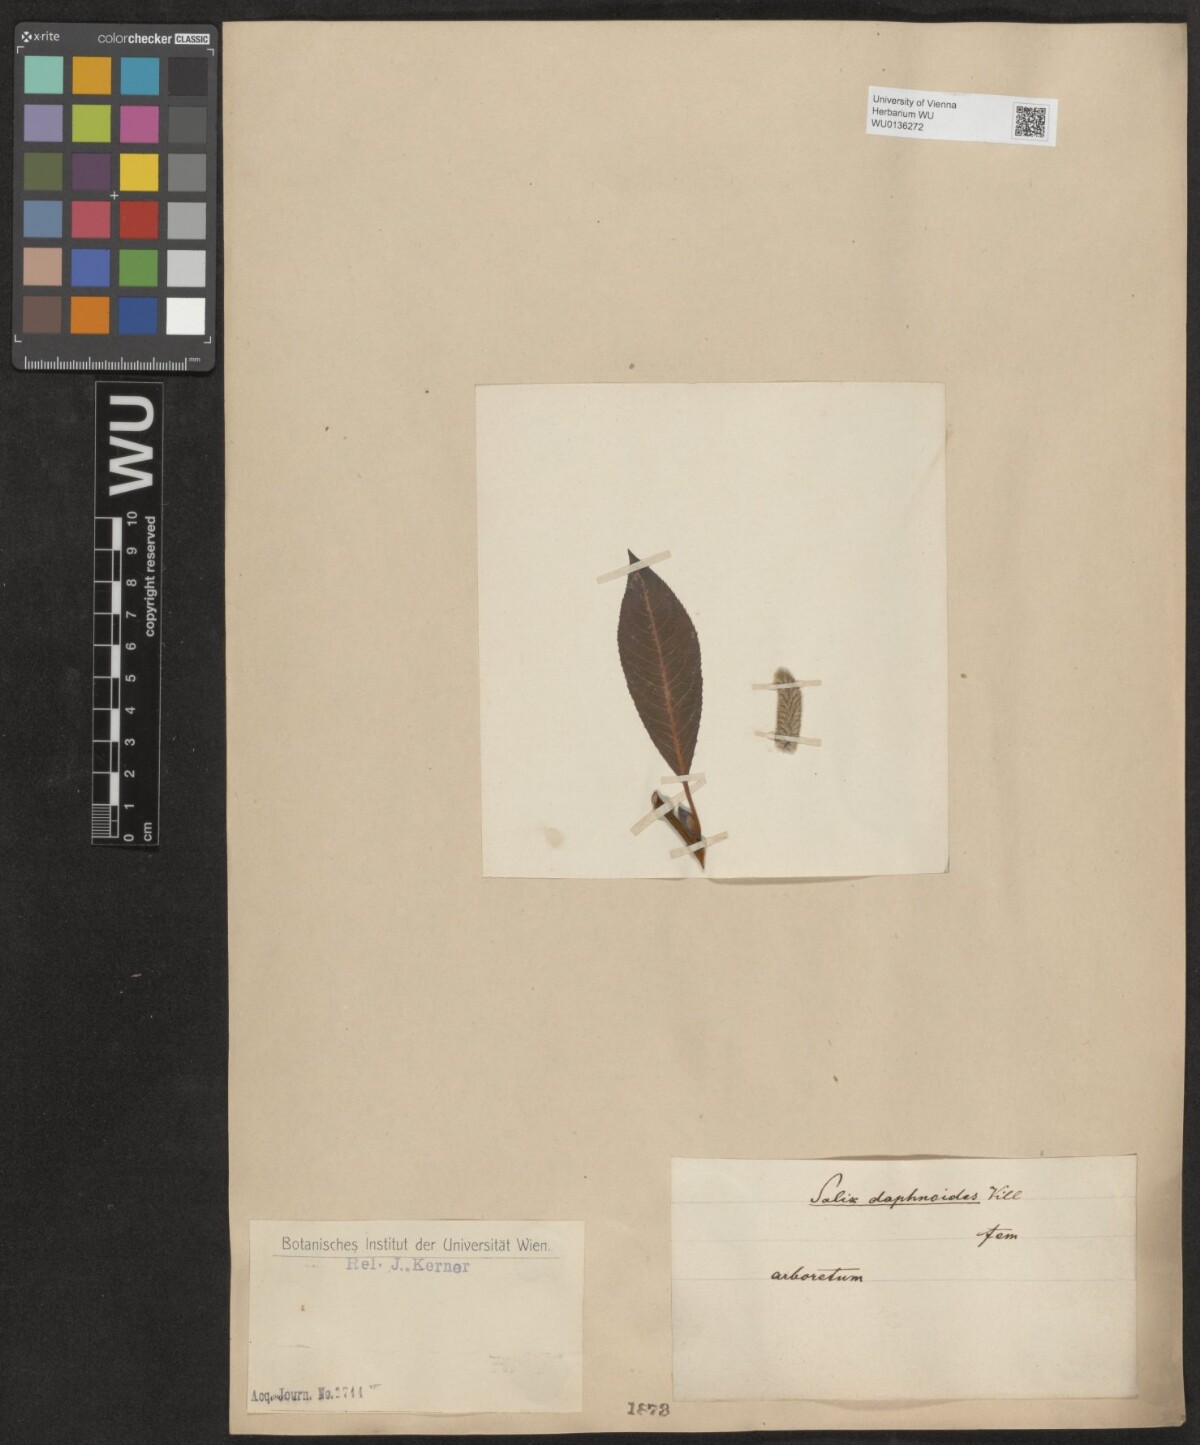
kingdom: Plantae
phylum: Tracheophyta
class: Magnoliopsida
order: Malpighiales
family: Salicaceae
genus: Salix
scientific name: Salix daphnoides
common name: European violet-willow
